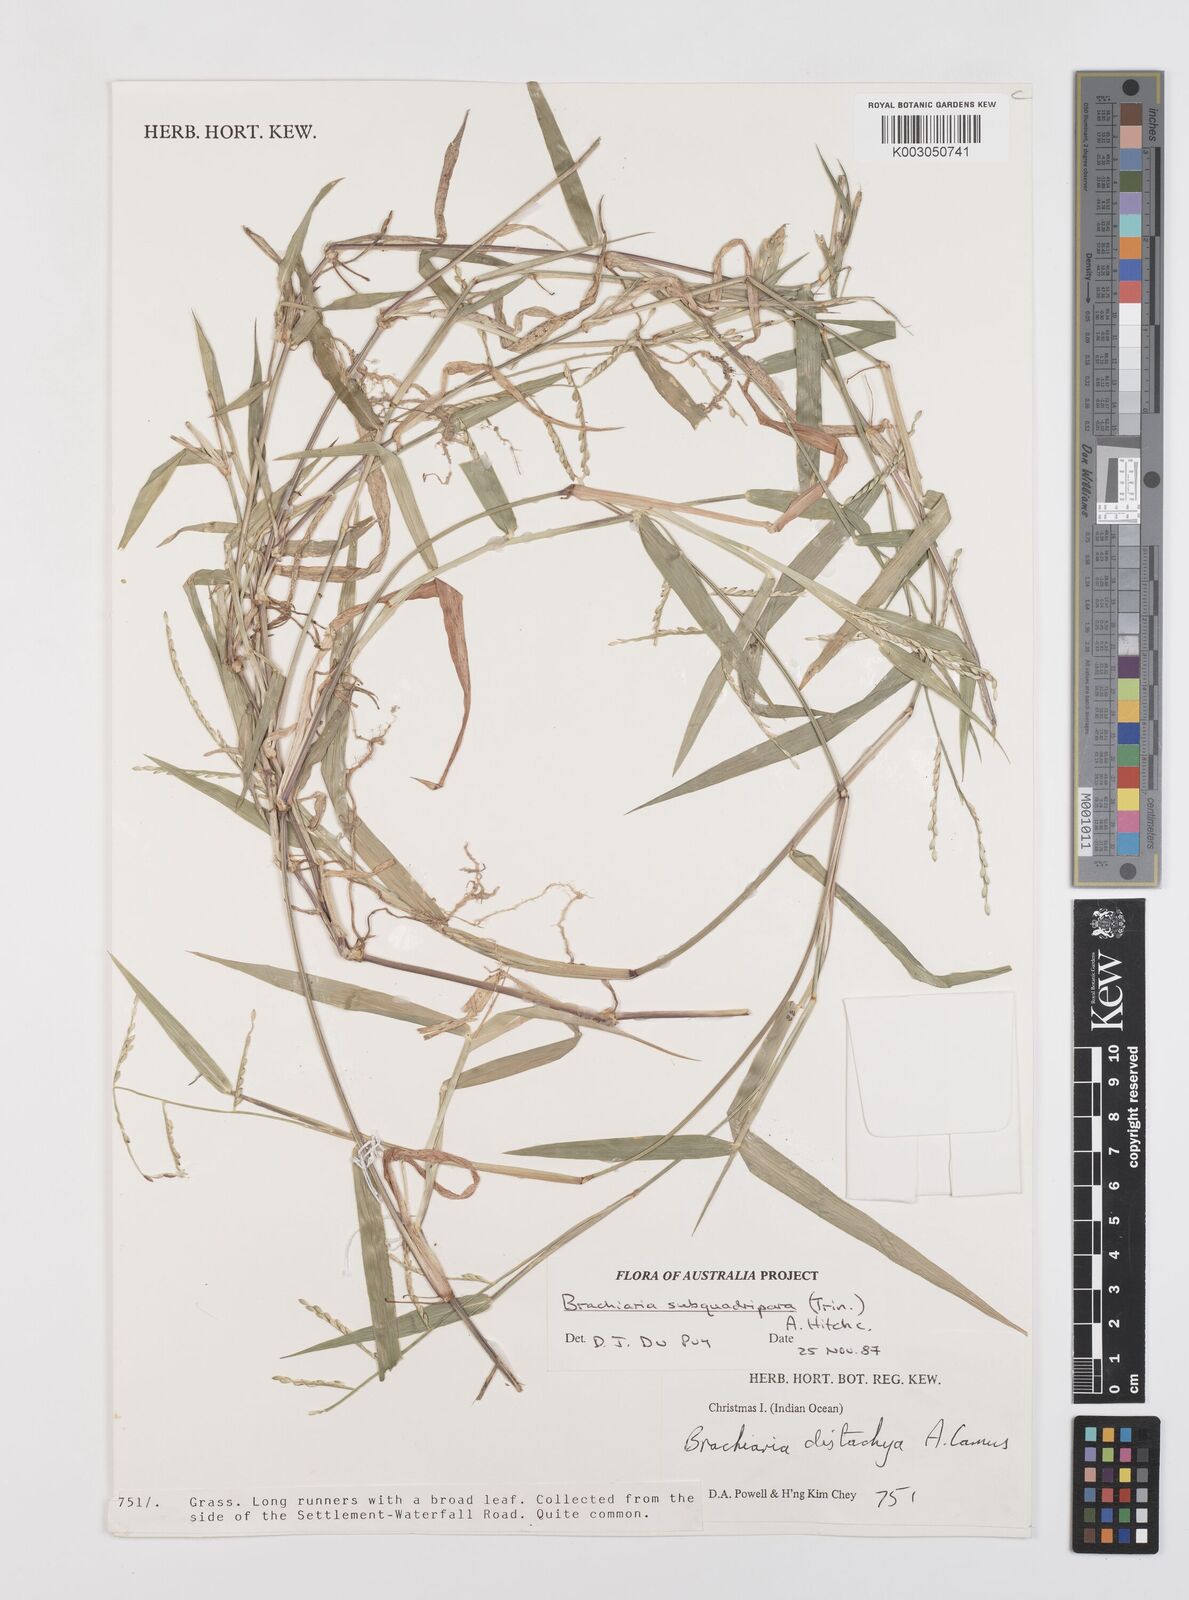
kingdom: Plantae
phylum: Tracheophyta
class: Liliopsida
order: Poales
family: Poaceae
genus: Urochloa
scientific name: Urochloa subquadripara
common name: Armgrass millet
